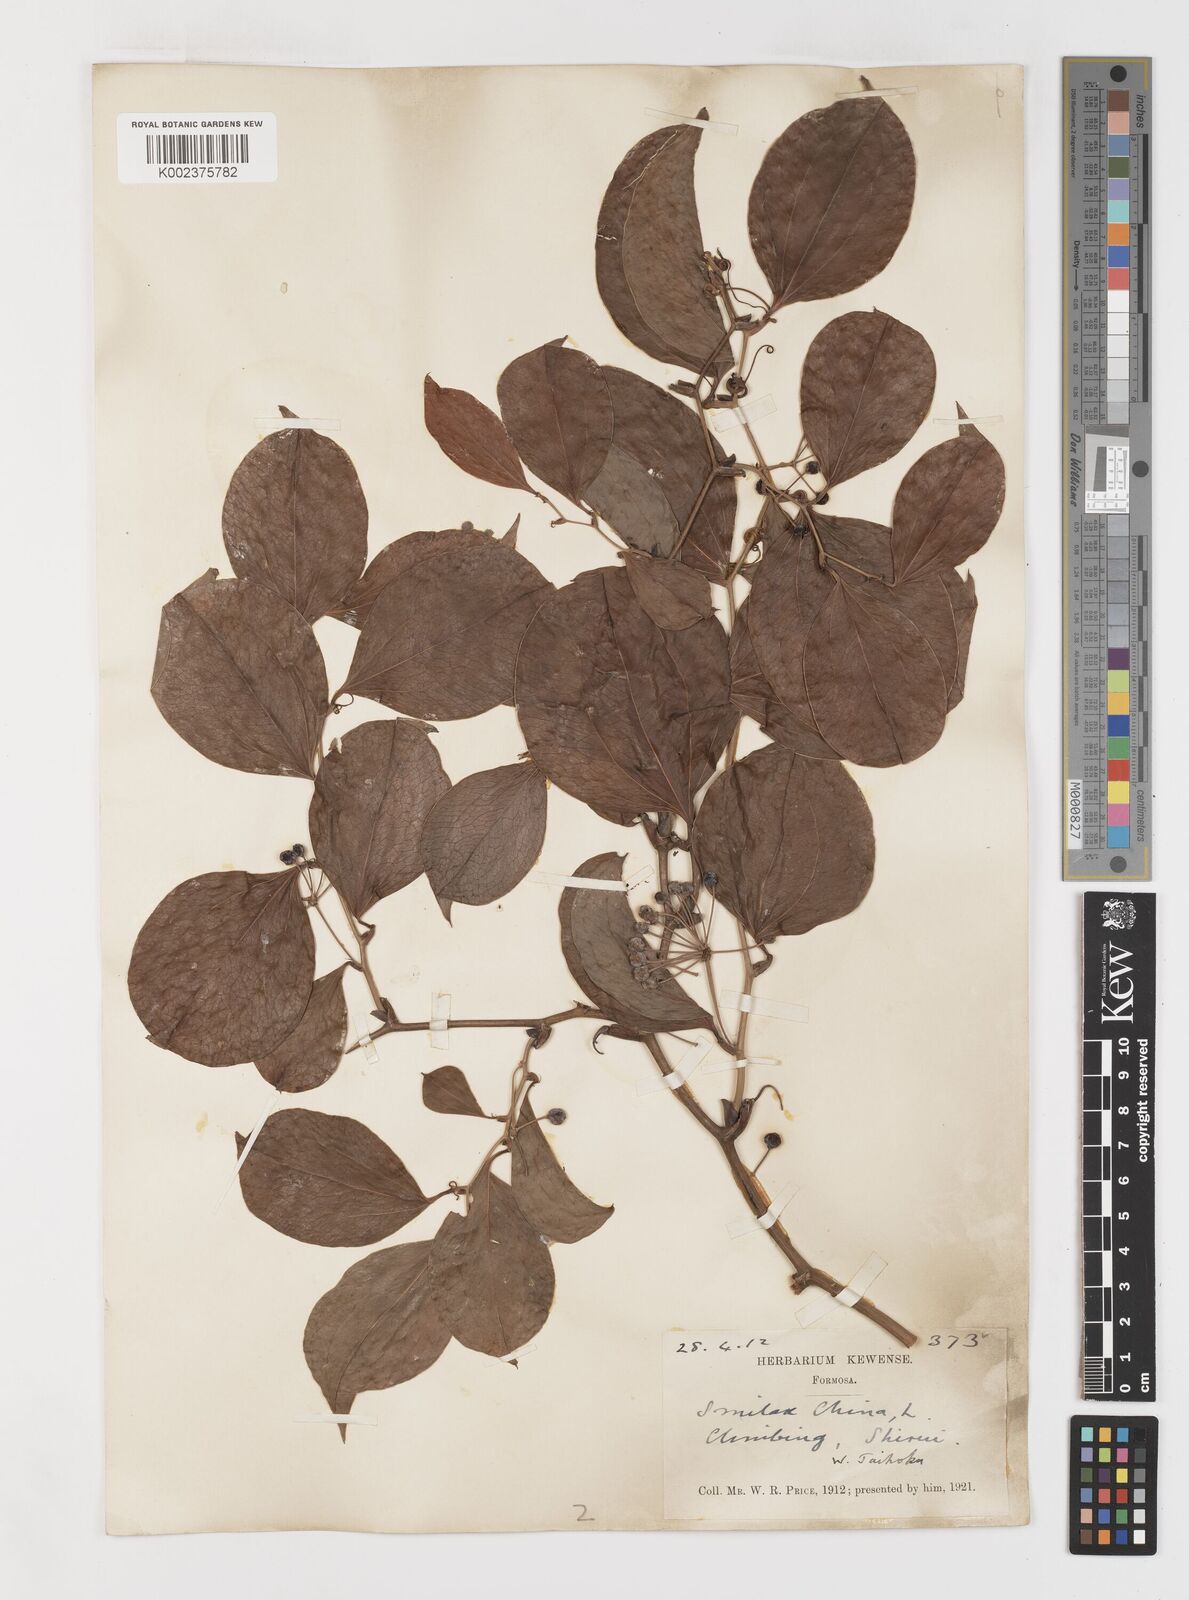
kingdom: Plantae
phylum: Tracheophyta
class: Liliopsida
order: Liliales
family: Smilacaceae
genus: Smilax
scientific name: Smilax china
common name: Chinaroot
